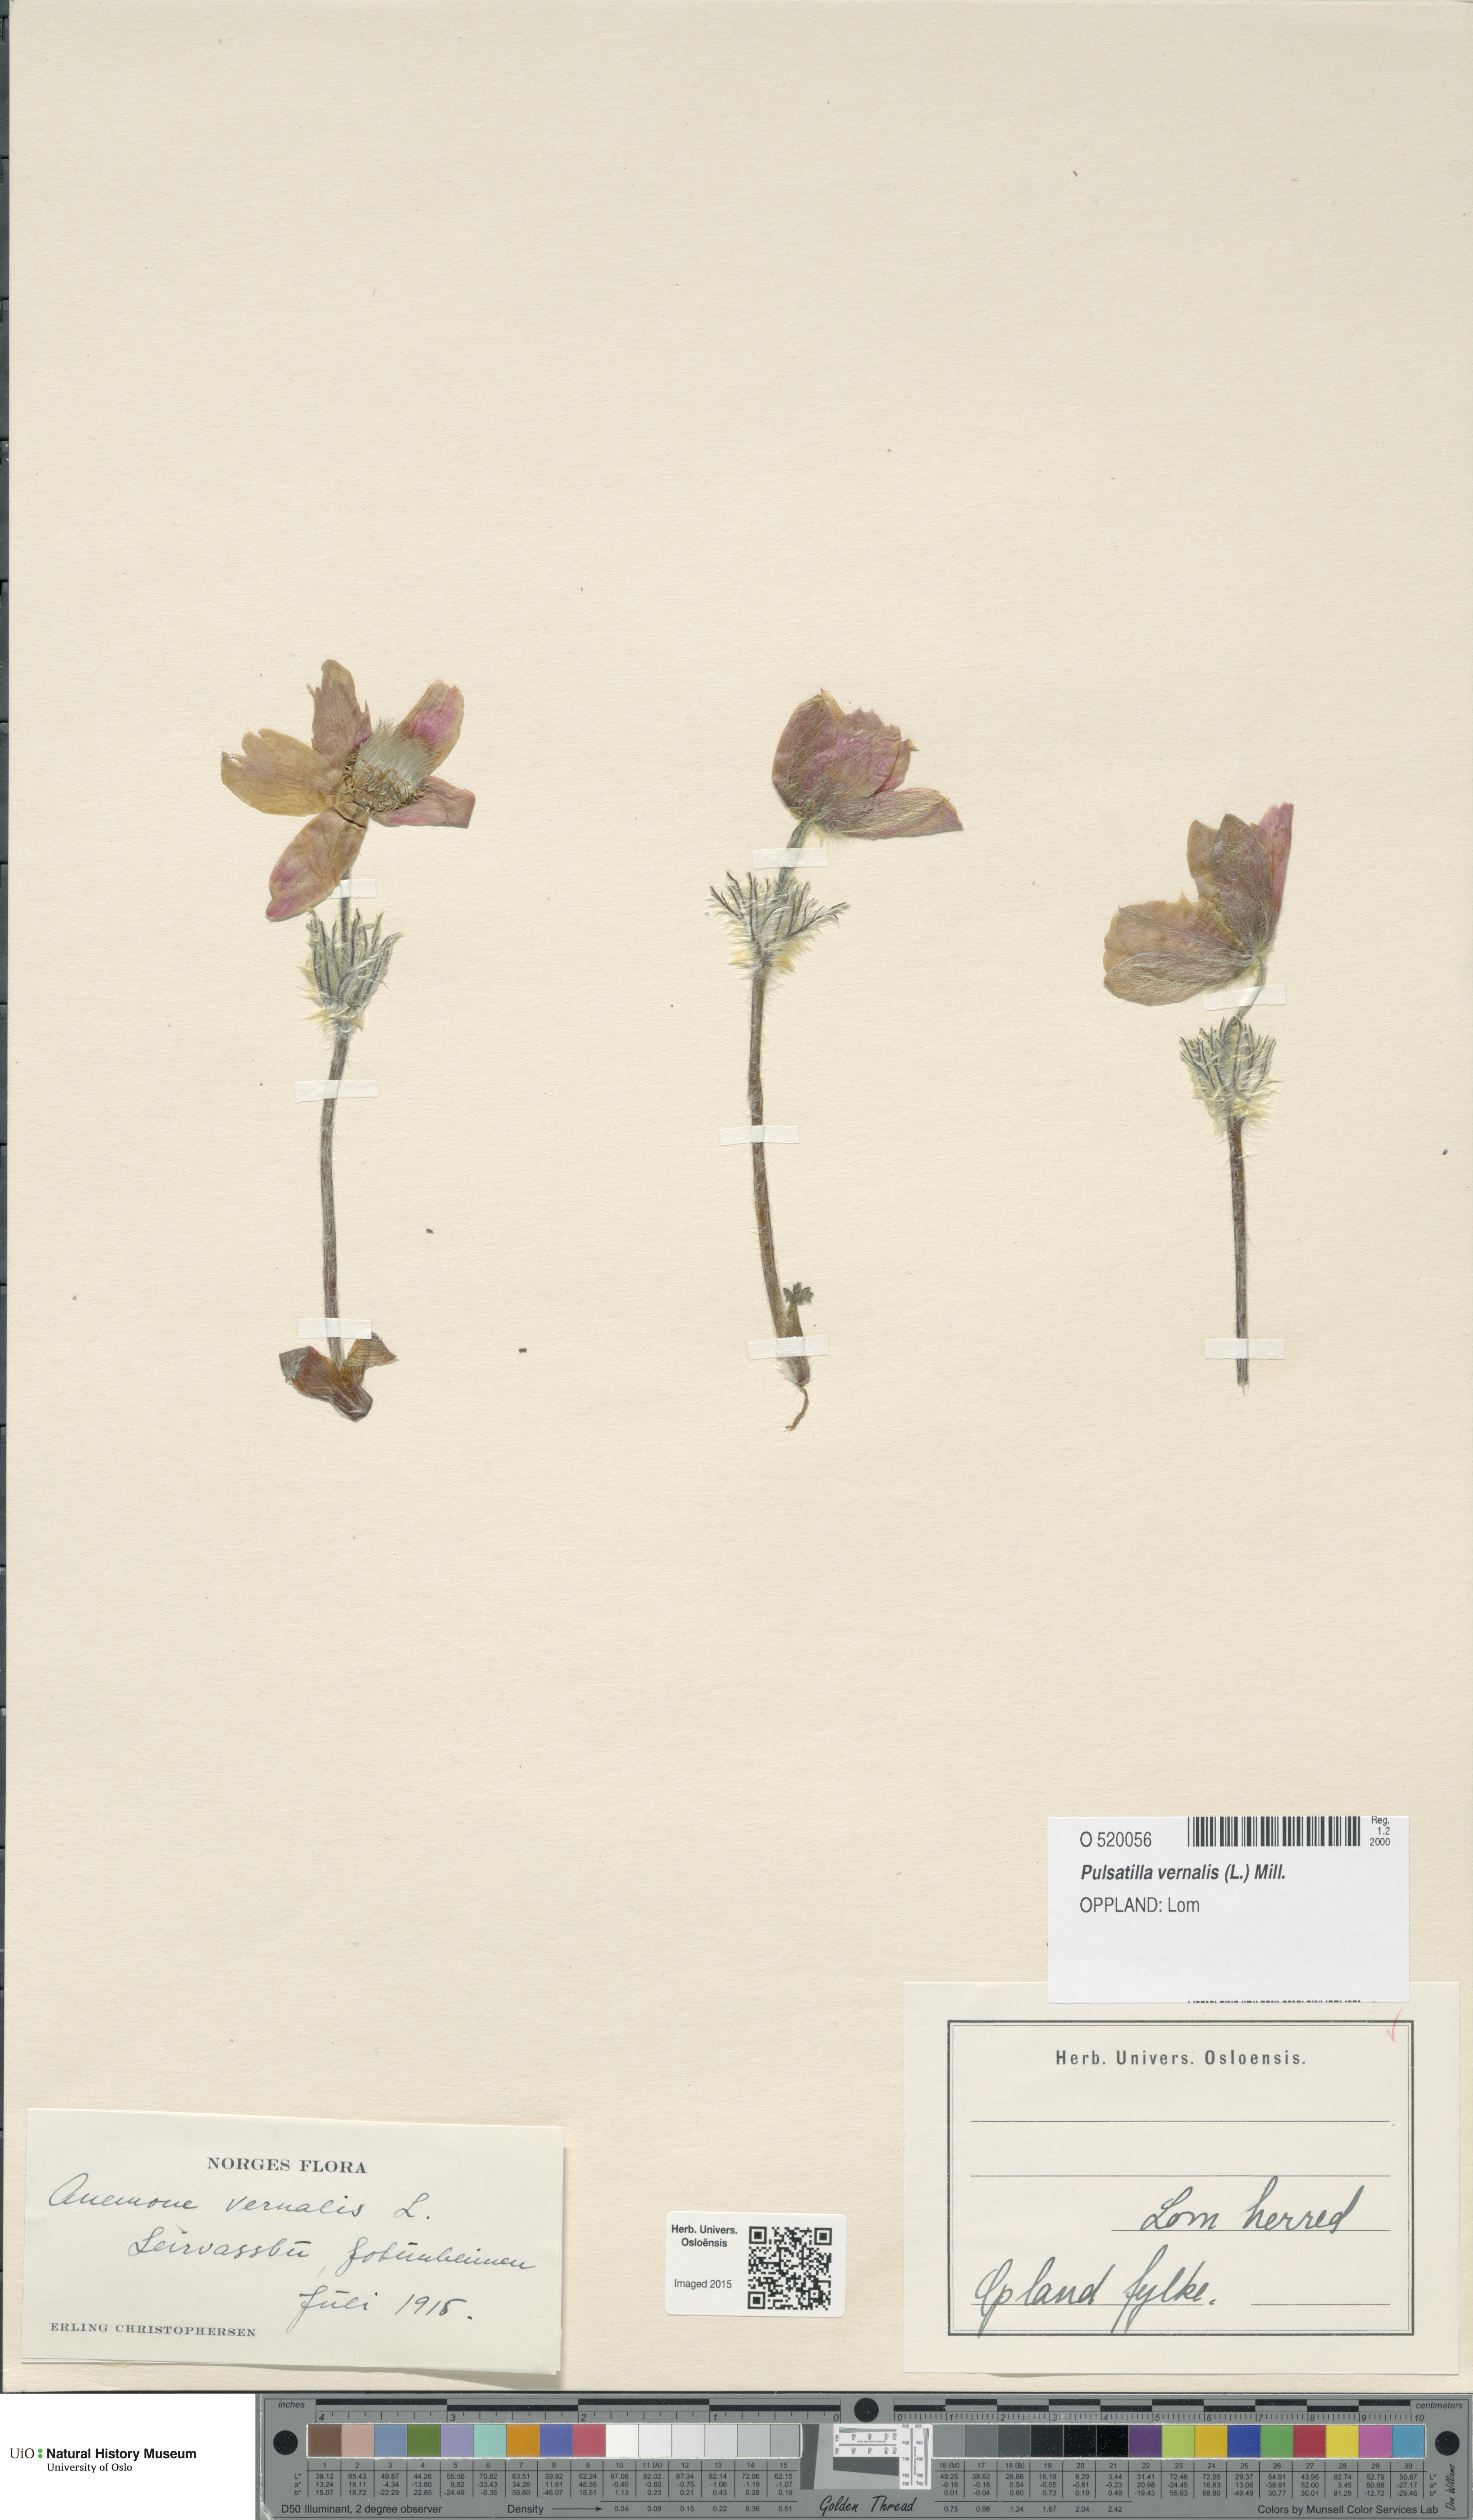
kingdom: Plantae
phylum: Tracheophyta
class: Magnoliopsida
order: Ranunculales
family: Ranunculaceae
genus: Pulsatilla
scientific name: Pulsatilla vernalis
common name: Spring pasque flower
